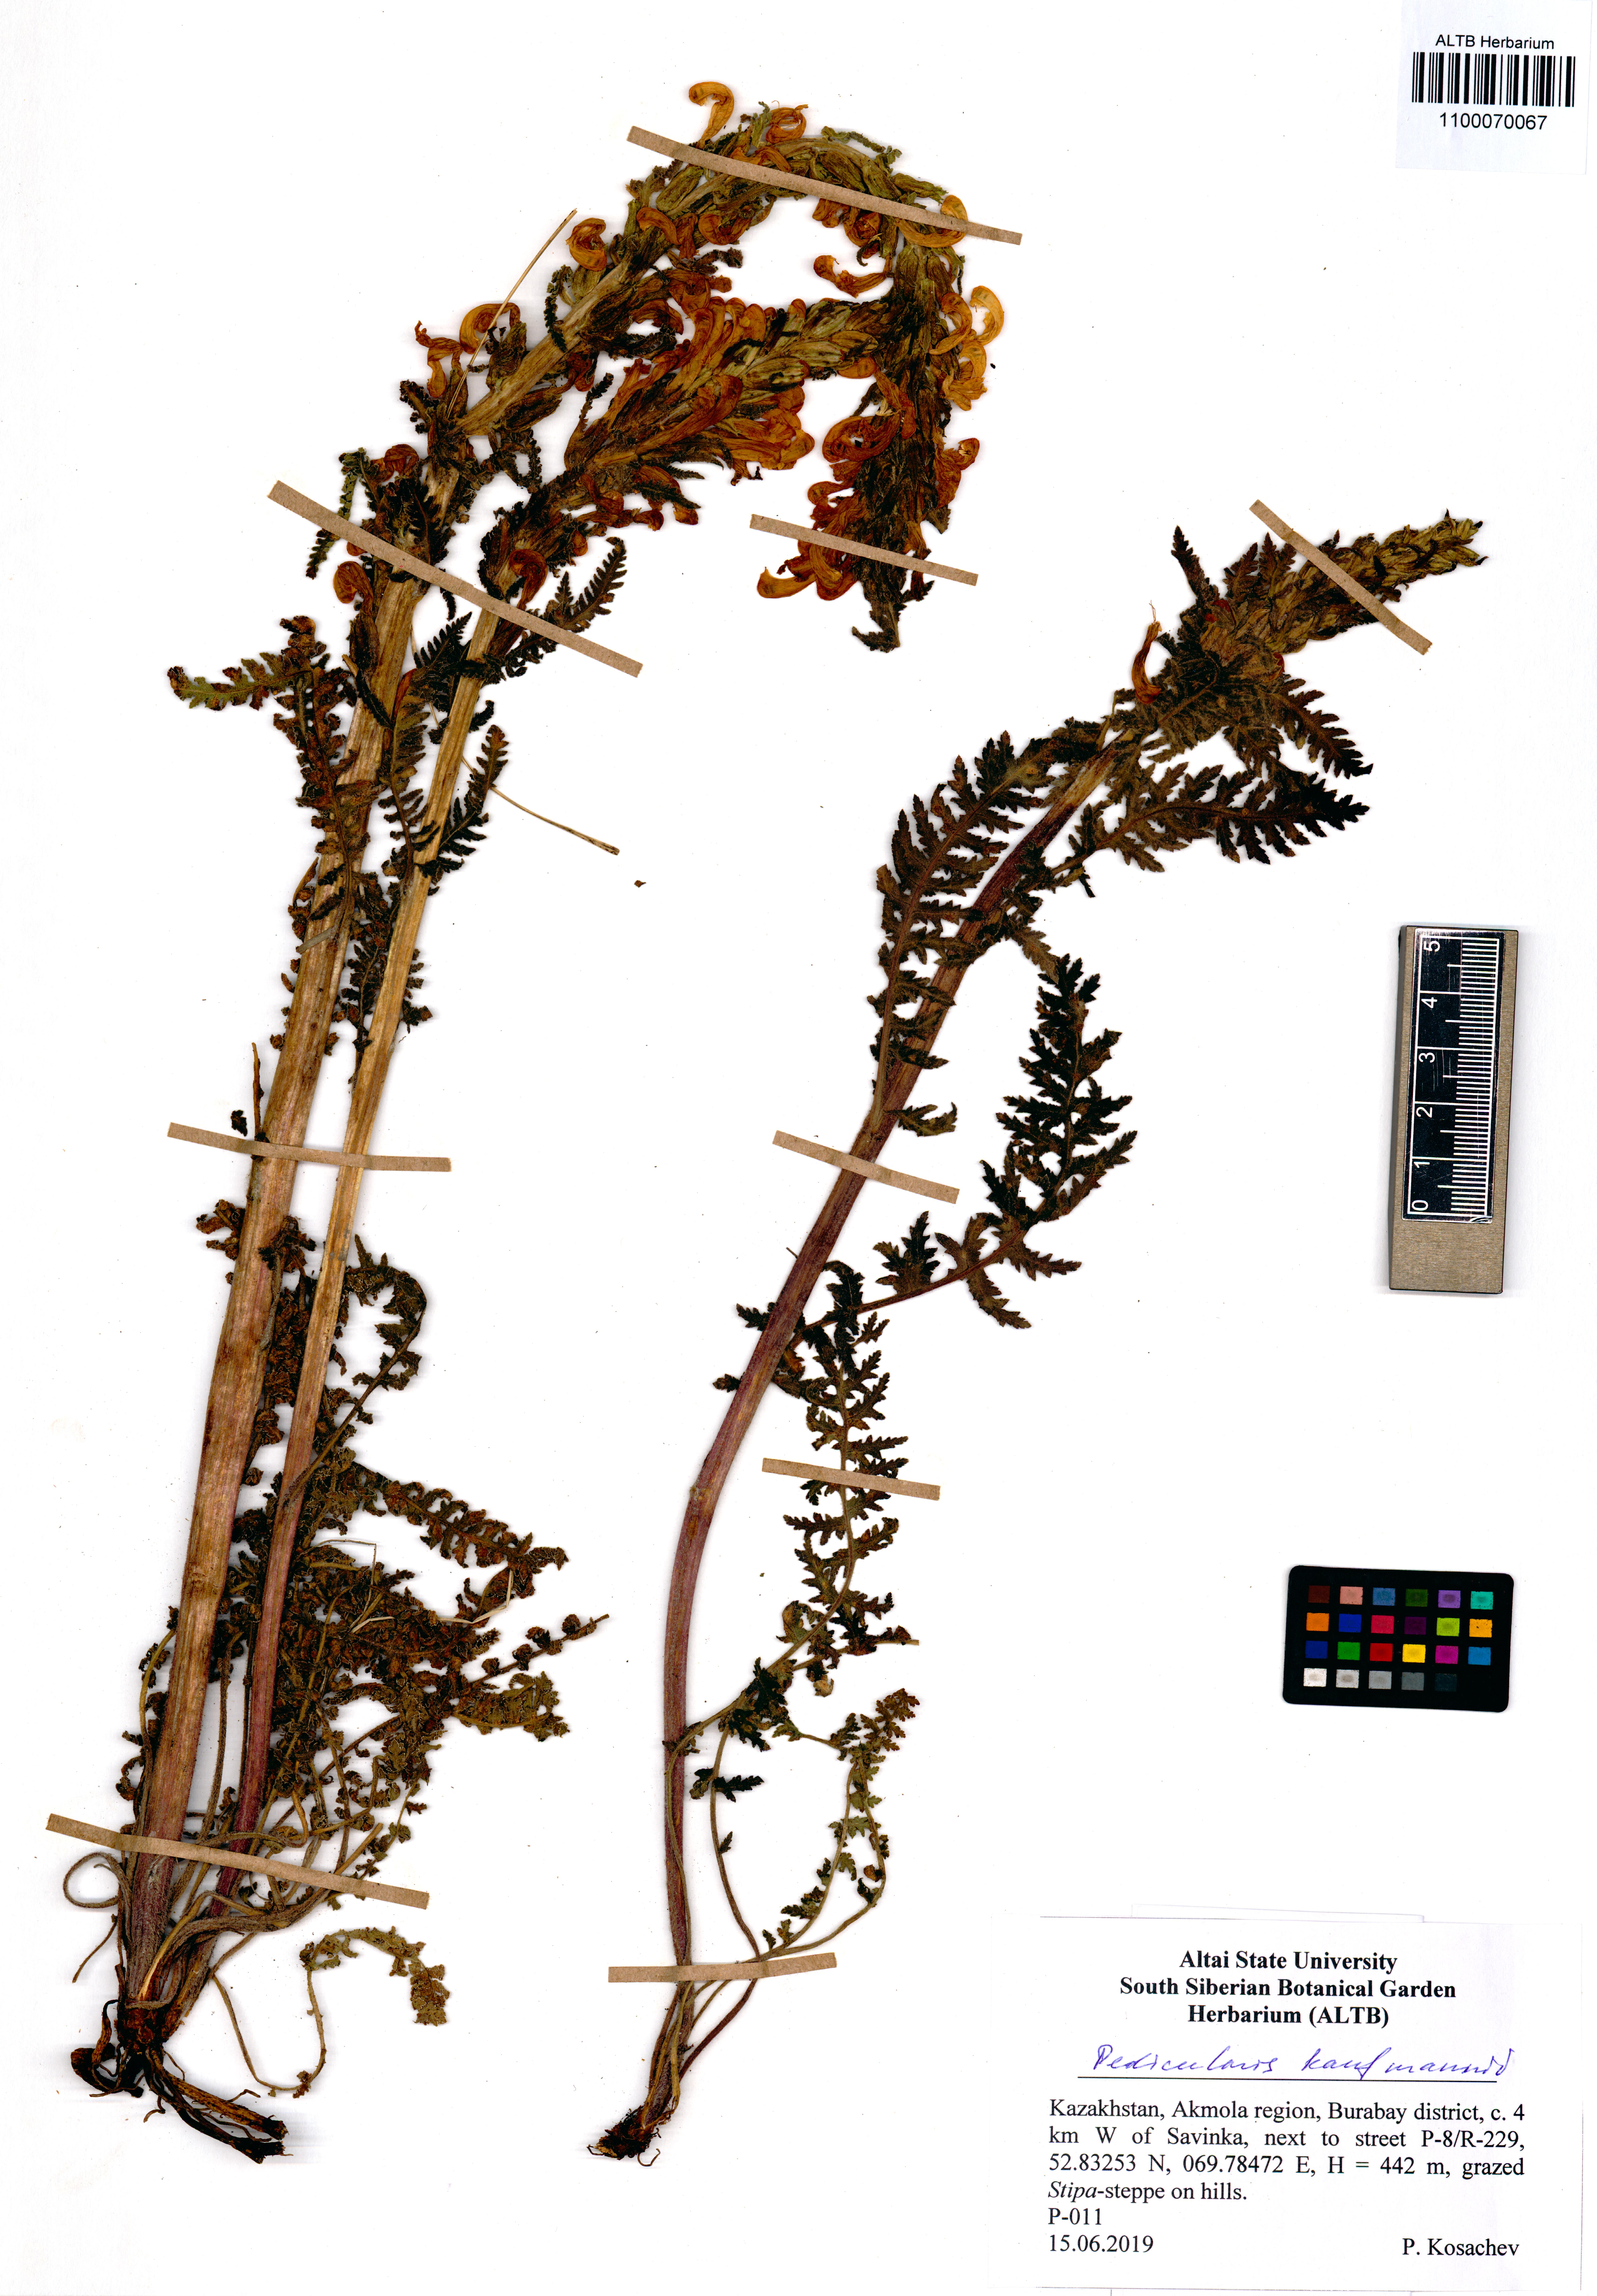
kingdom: Plantae
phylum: Tracheophyta
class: Magnoliopsida
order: Lamiales
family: Orobanchaceae
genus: Pedicularis
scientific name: Pedicularis kaufmannii
